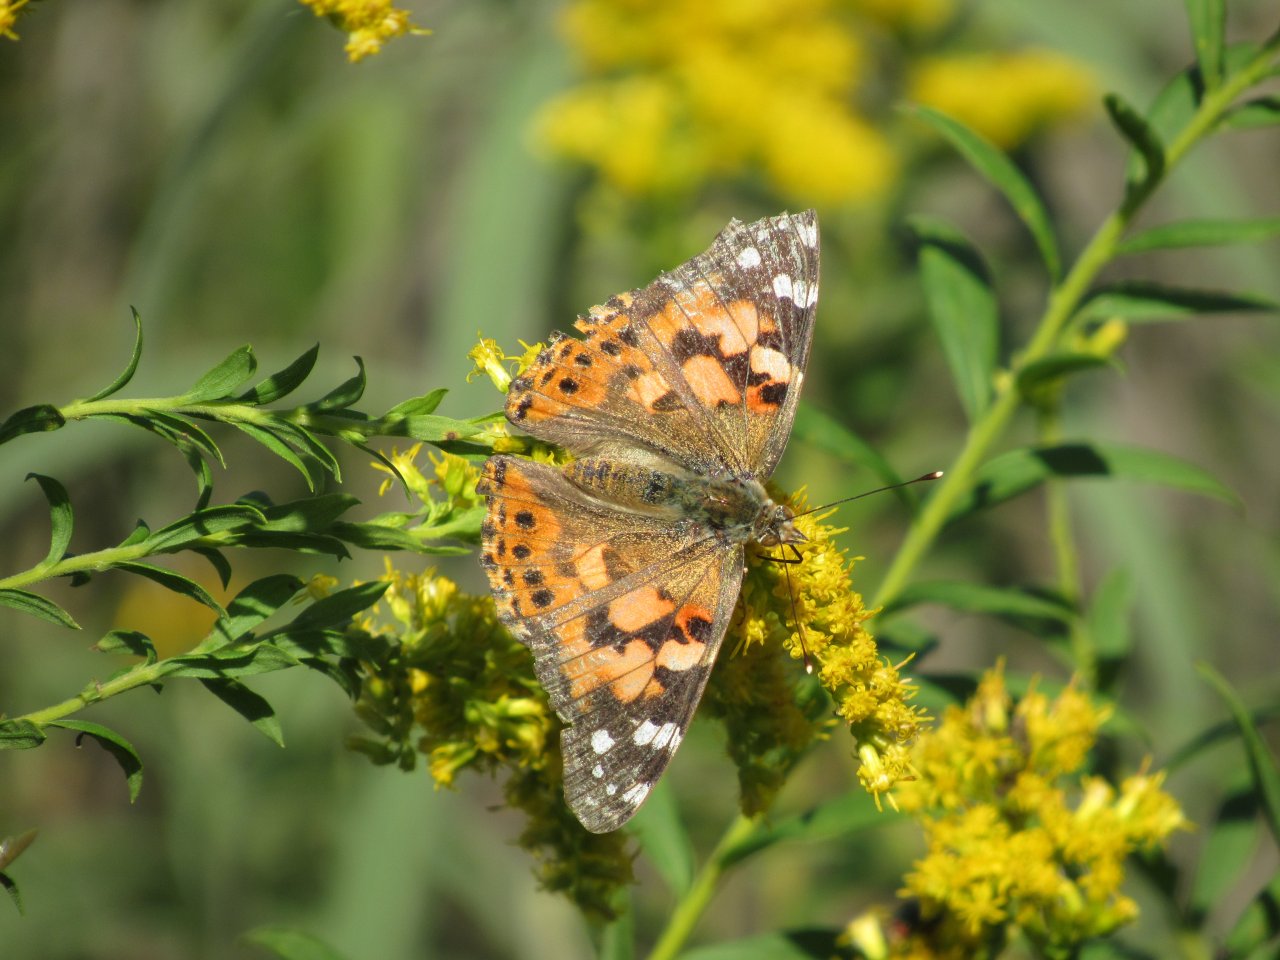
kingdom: Animalia
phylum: Arthropoda
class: Insecta
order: Lepidoptera
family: Nymphalidae
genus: Vanessa
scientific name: Vanessa cardui
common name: Painted Lady
